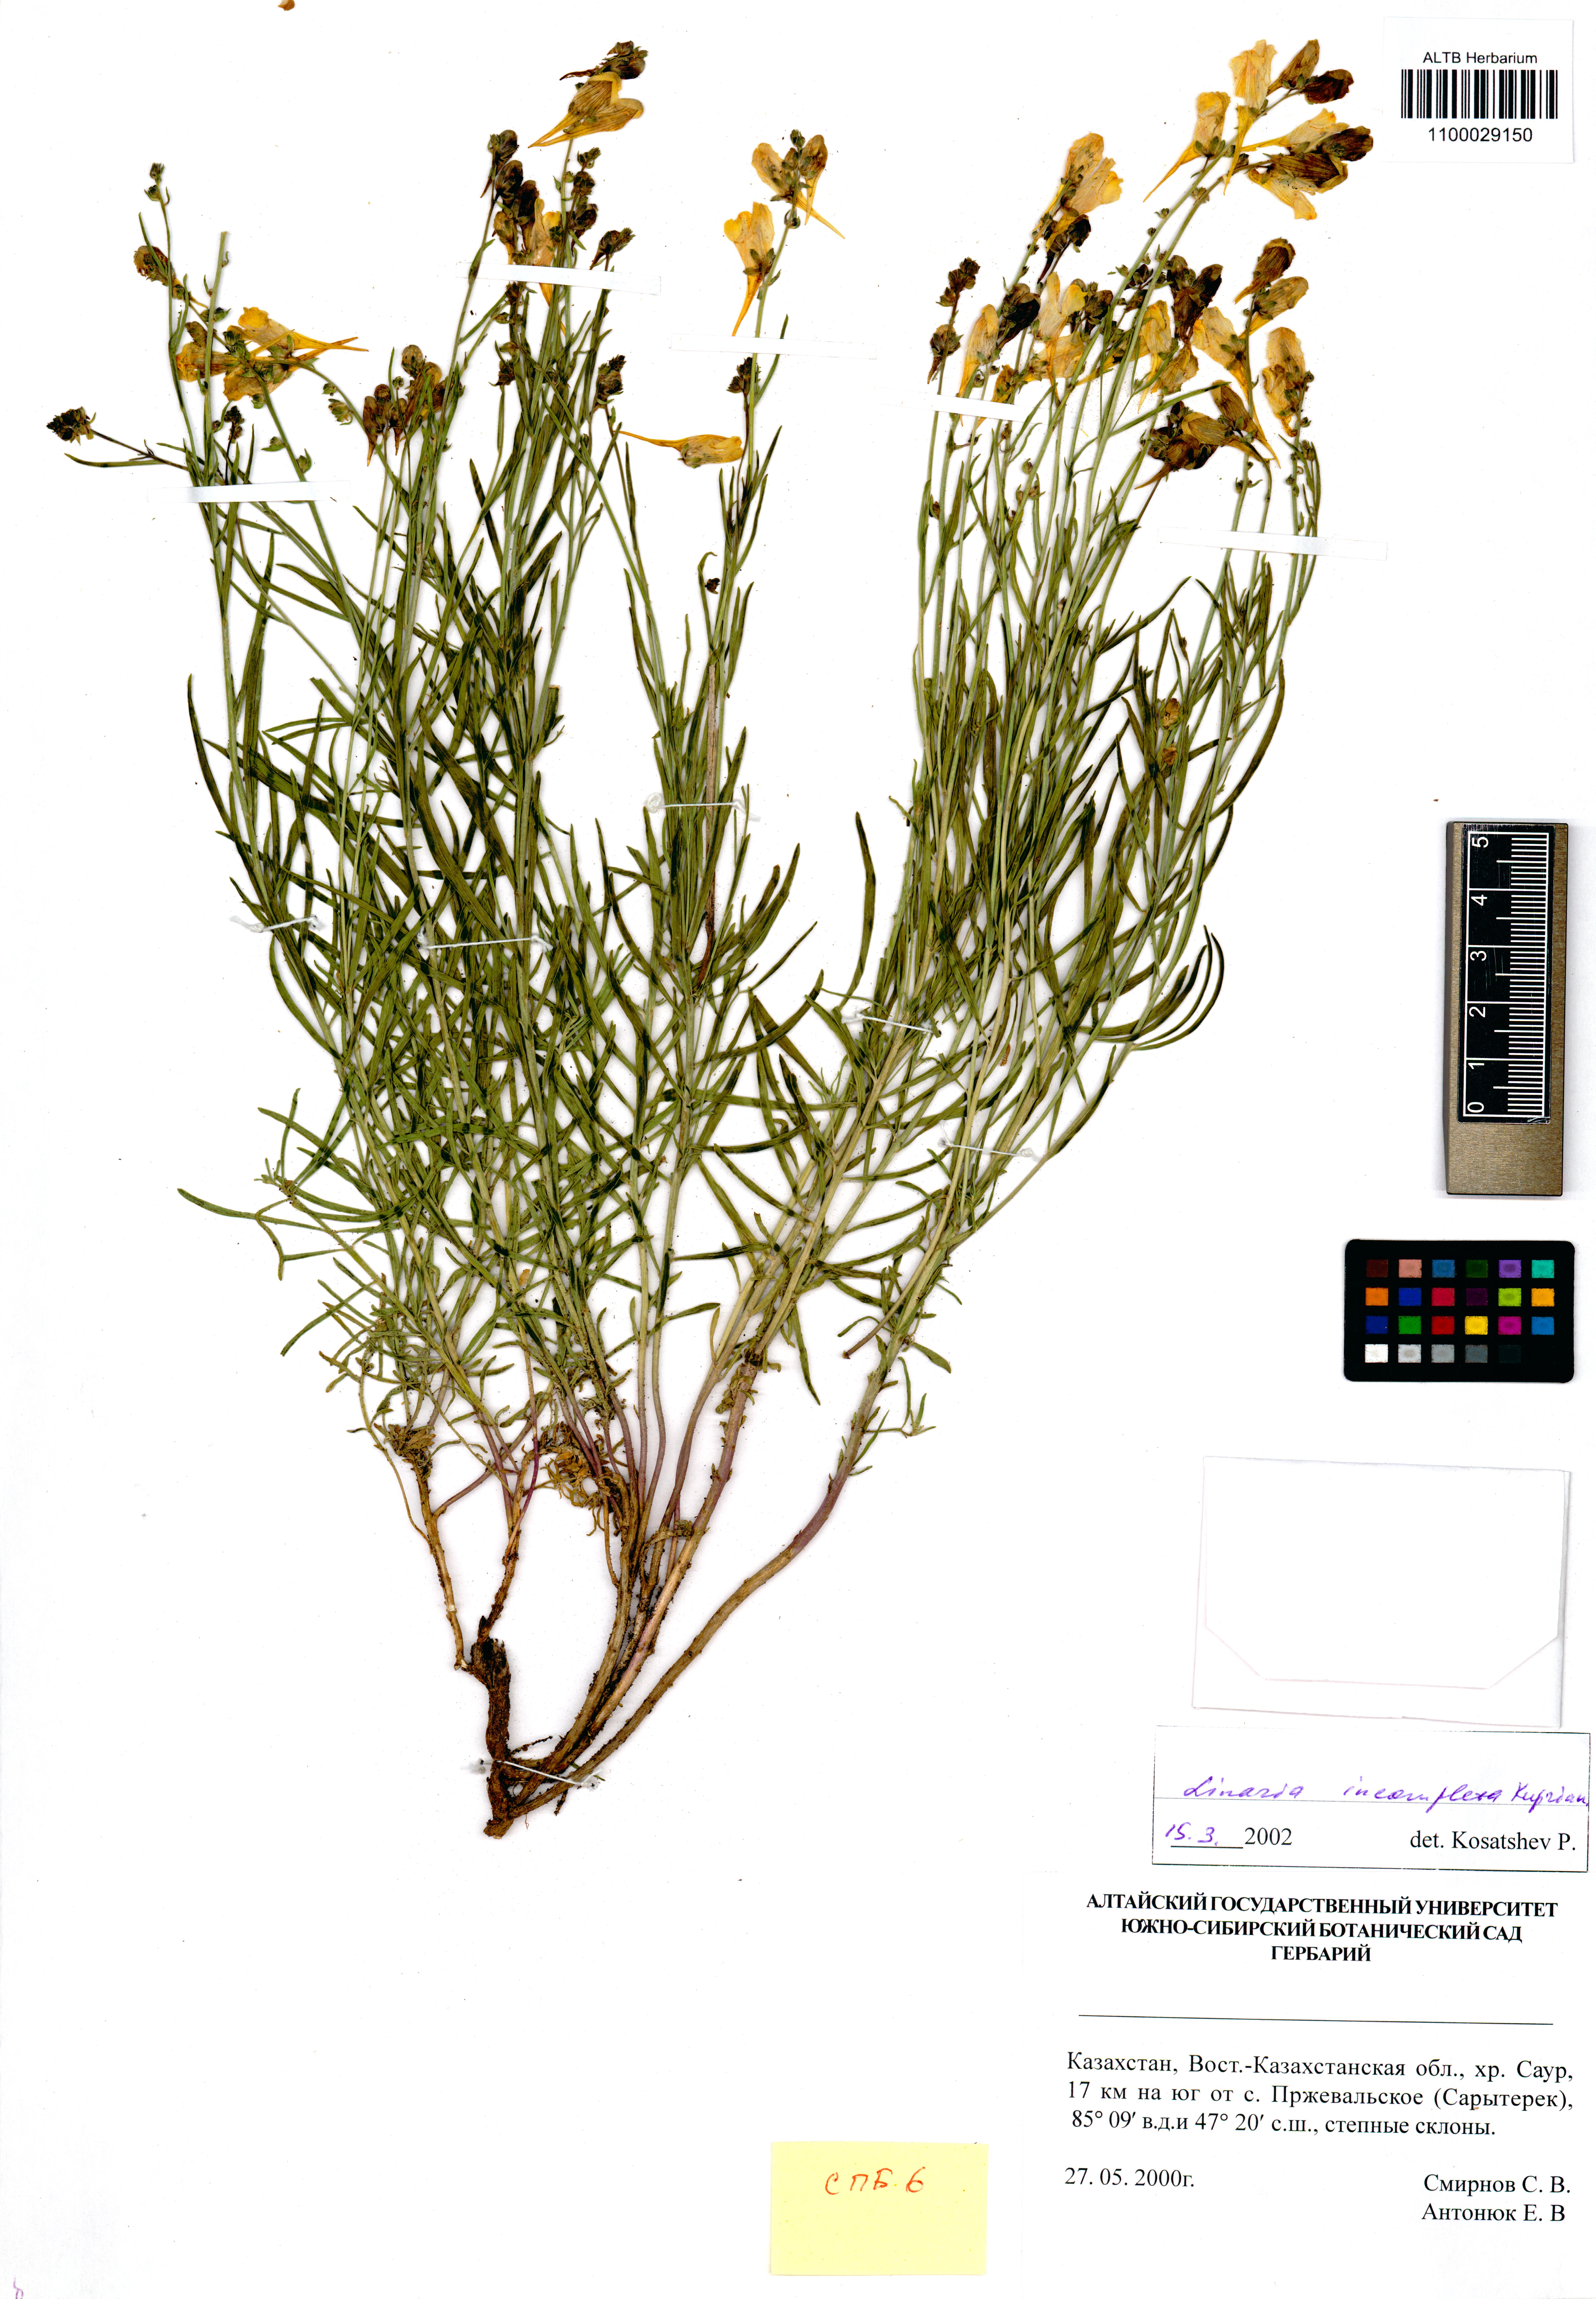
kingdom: Plantae
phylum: Tracheophyta
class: Magnoliopsida
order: Lamiales
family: Plantaginaceae
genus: Linaria
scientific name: Linaria incompleta
